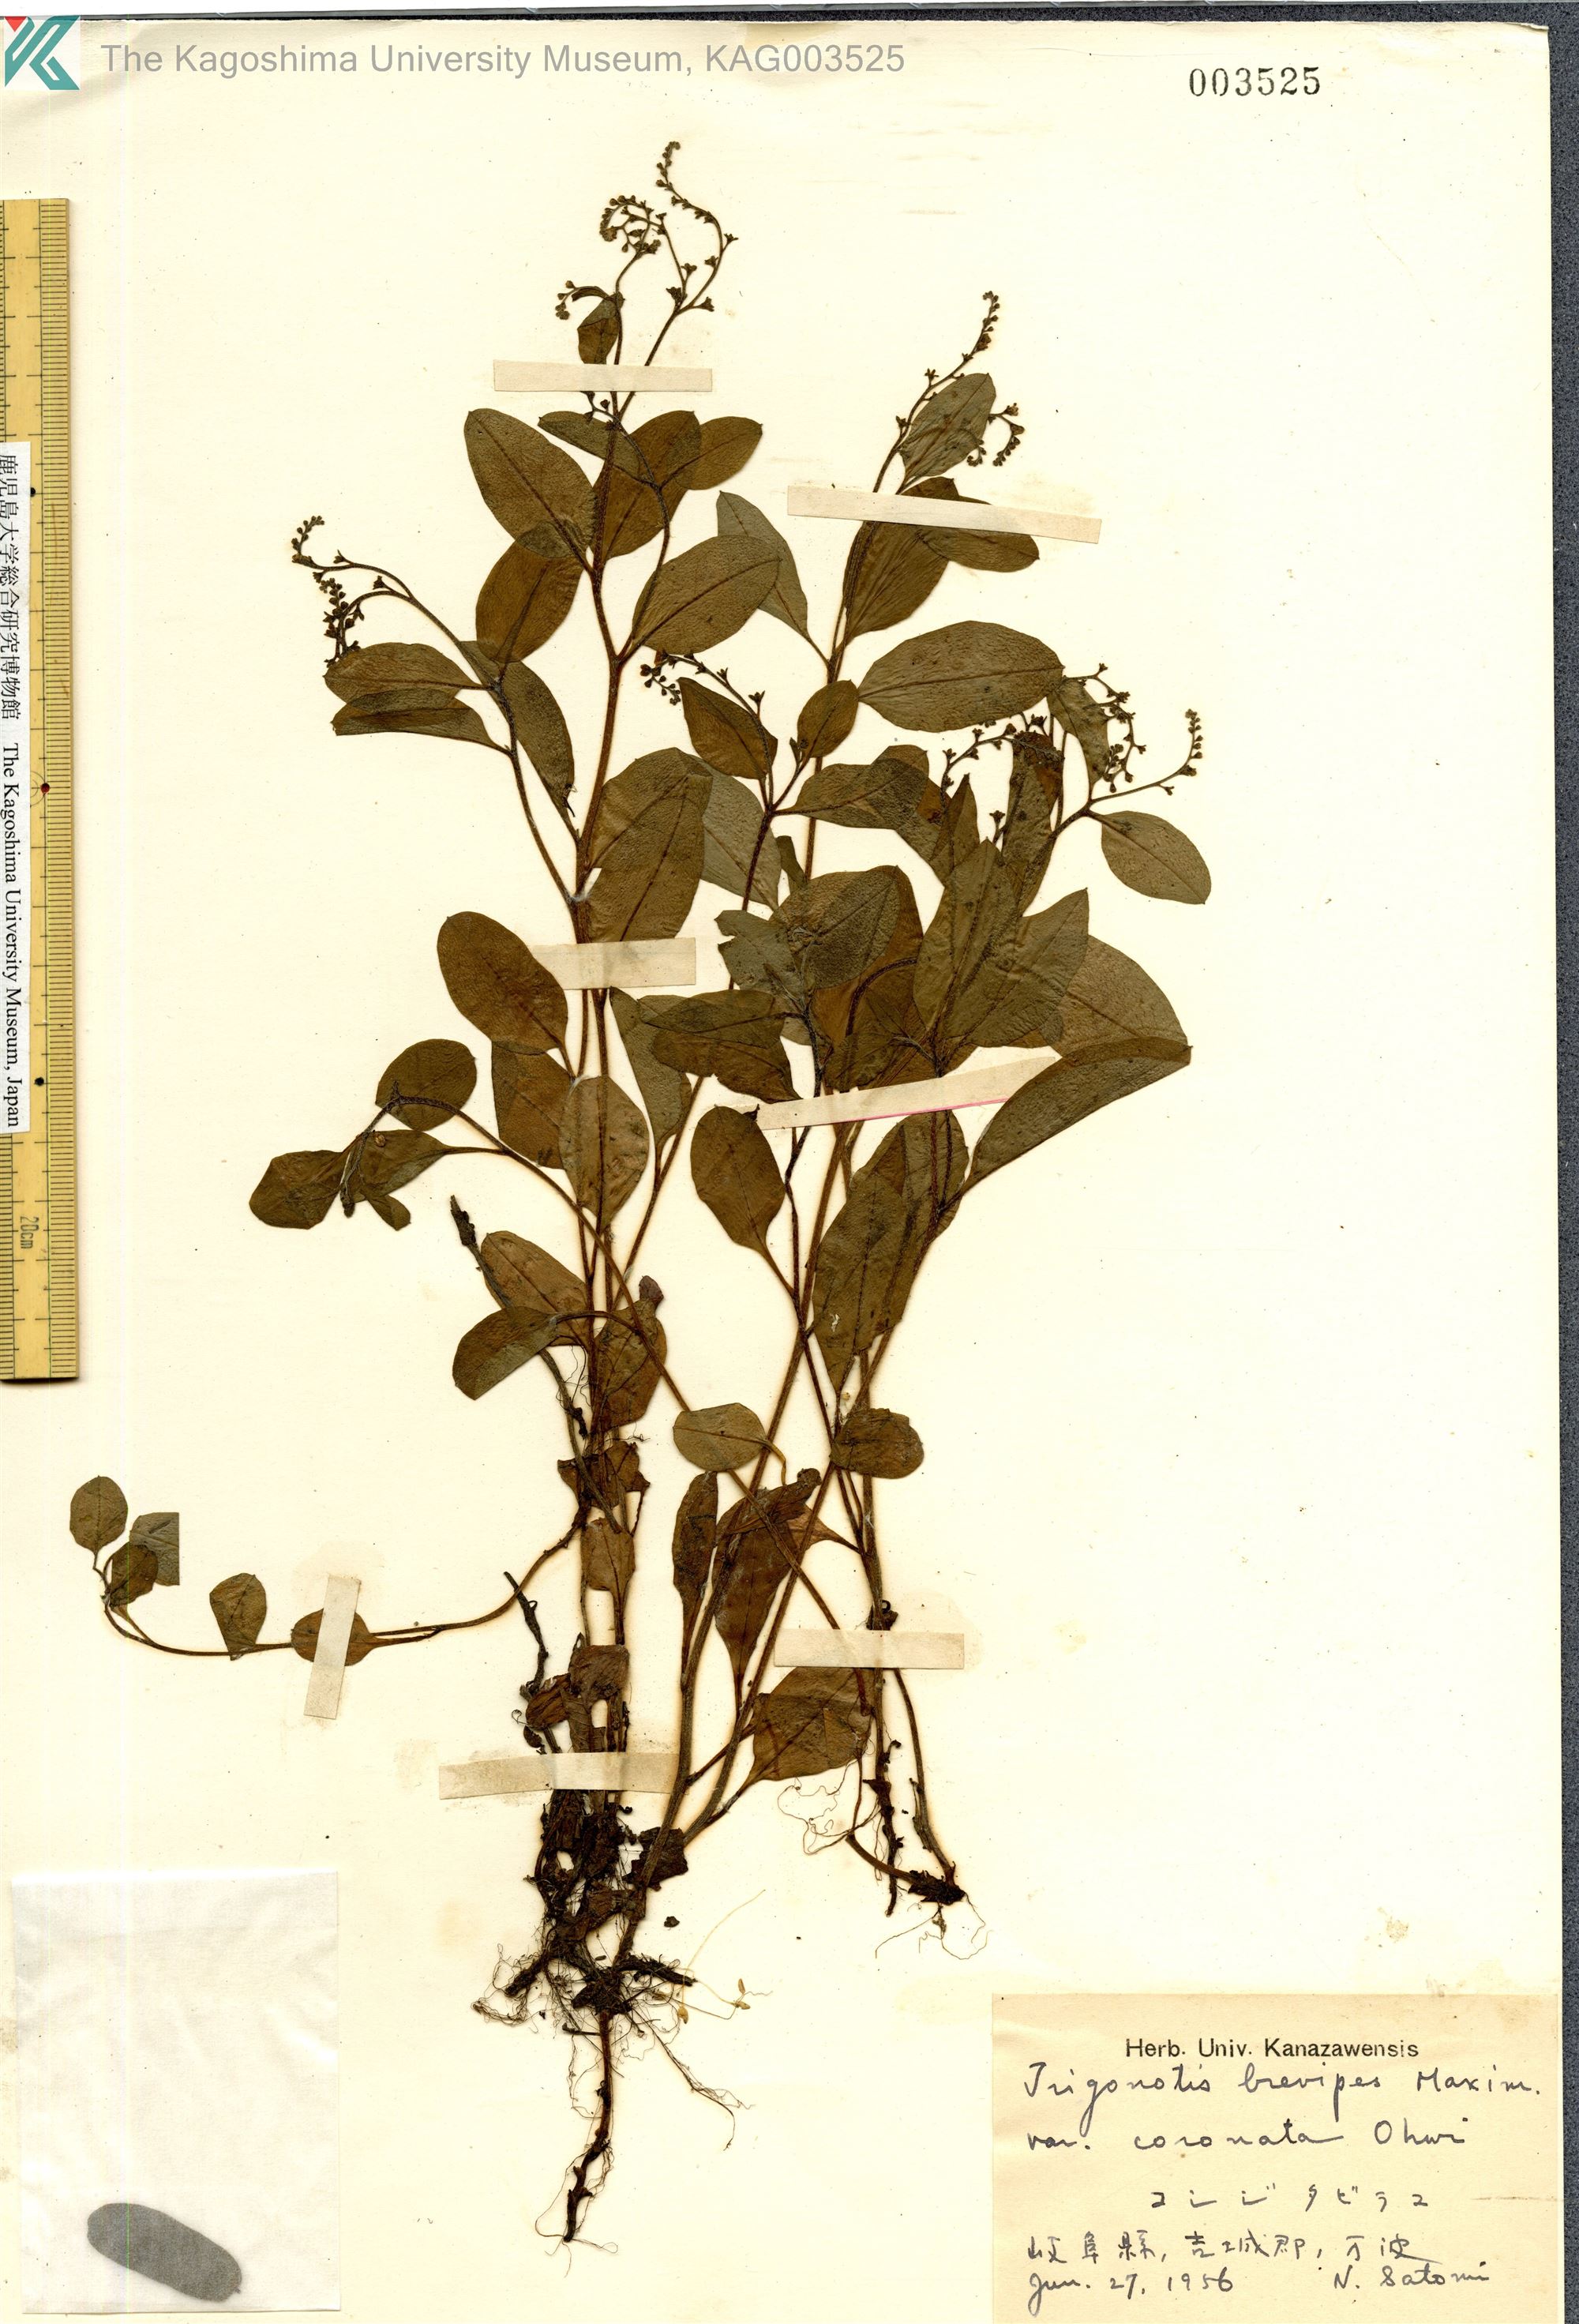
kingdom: Plantae
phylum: Tracheophyta
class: Magnoliopsida
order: Boraginales
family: Boraginaceae
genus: Trigonotis
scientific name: Trigonotis brevipes
